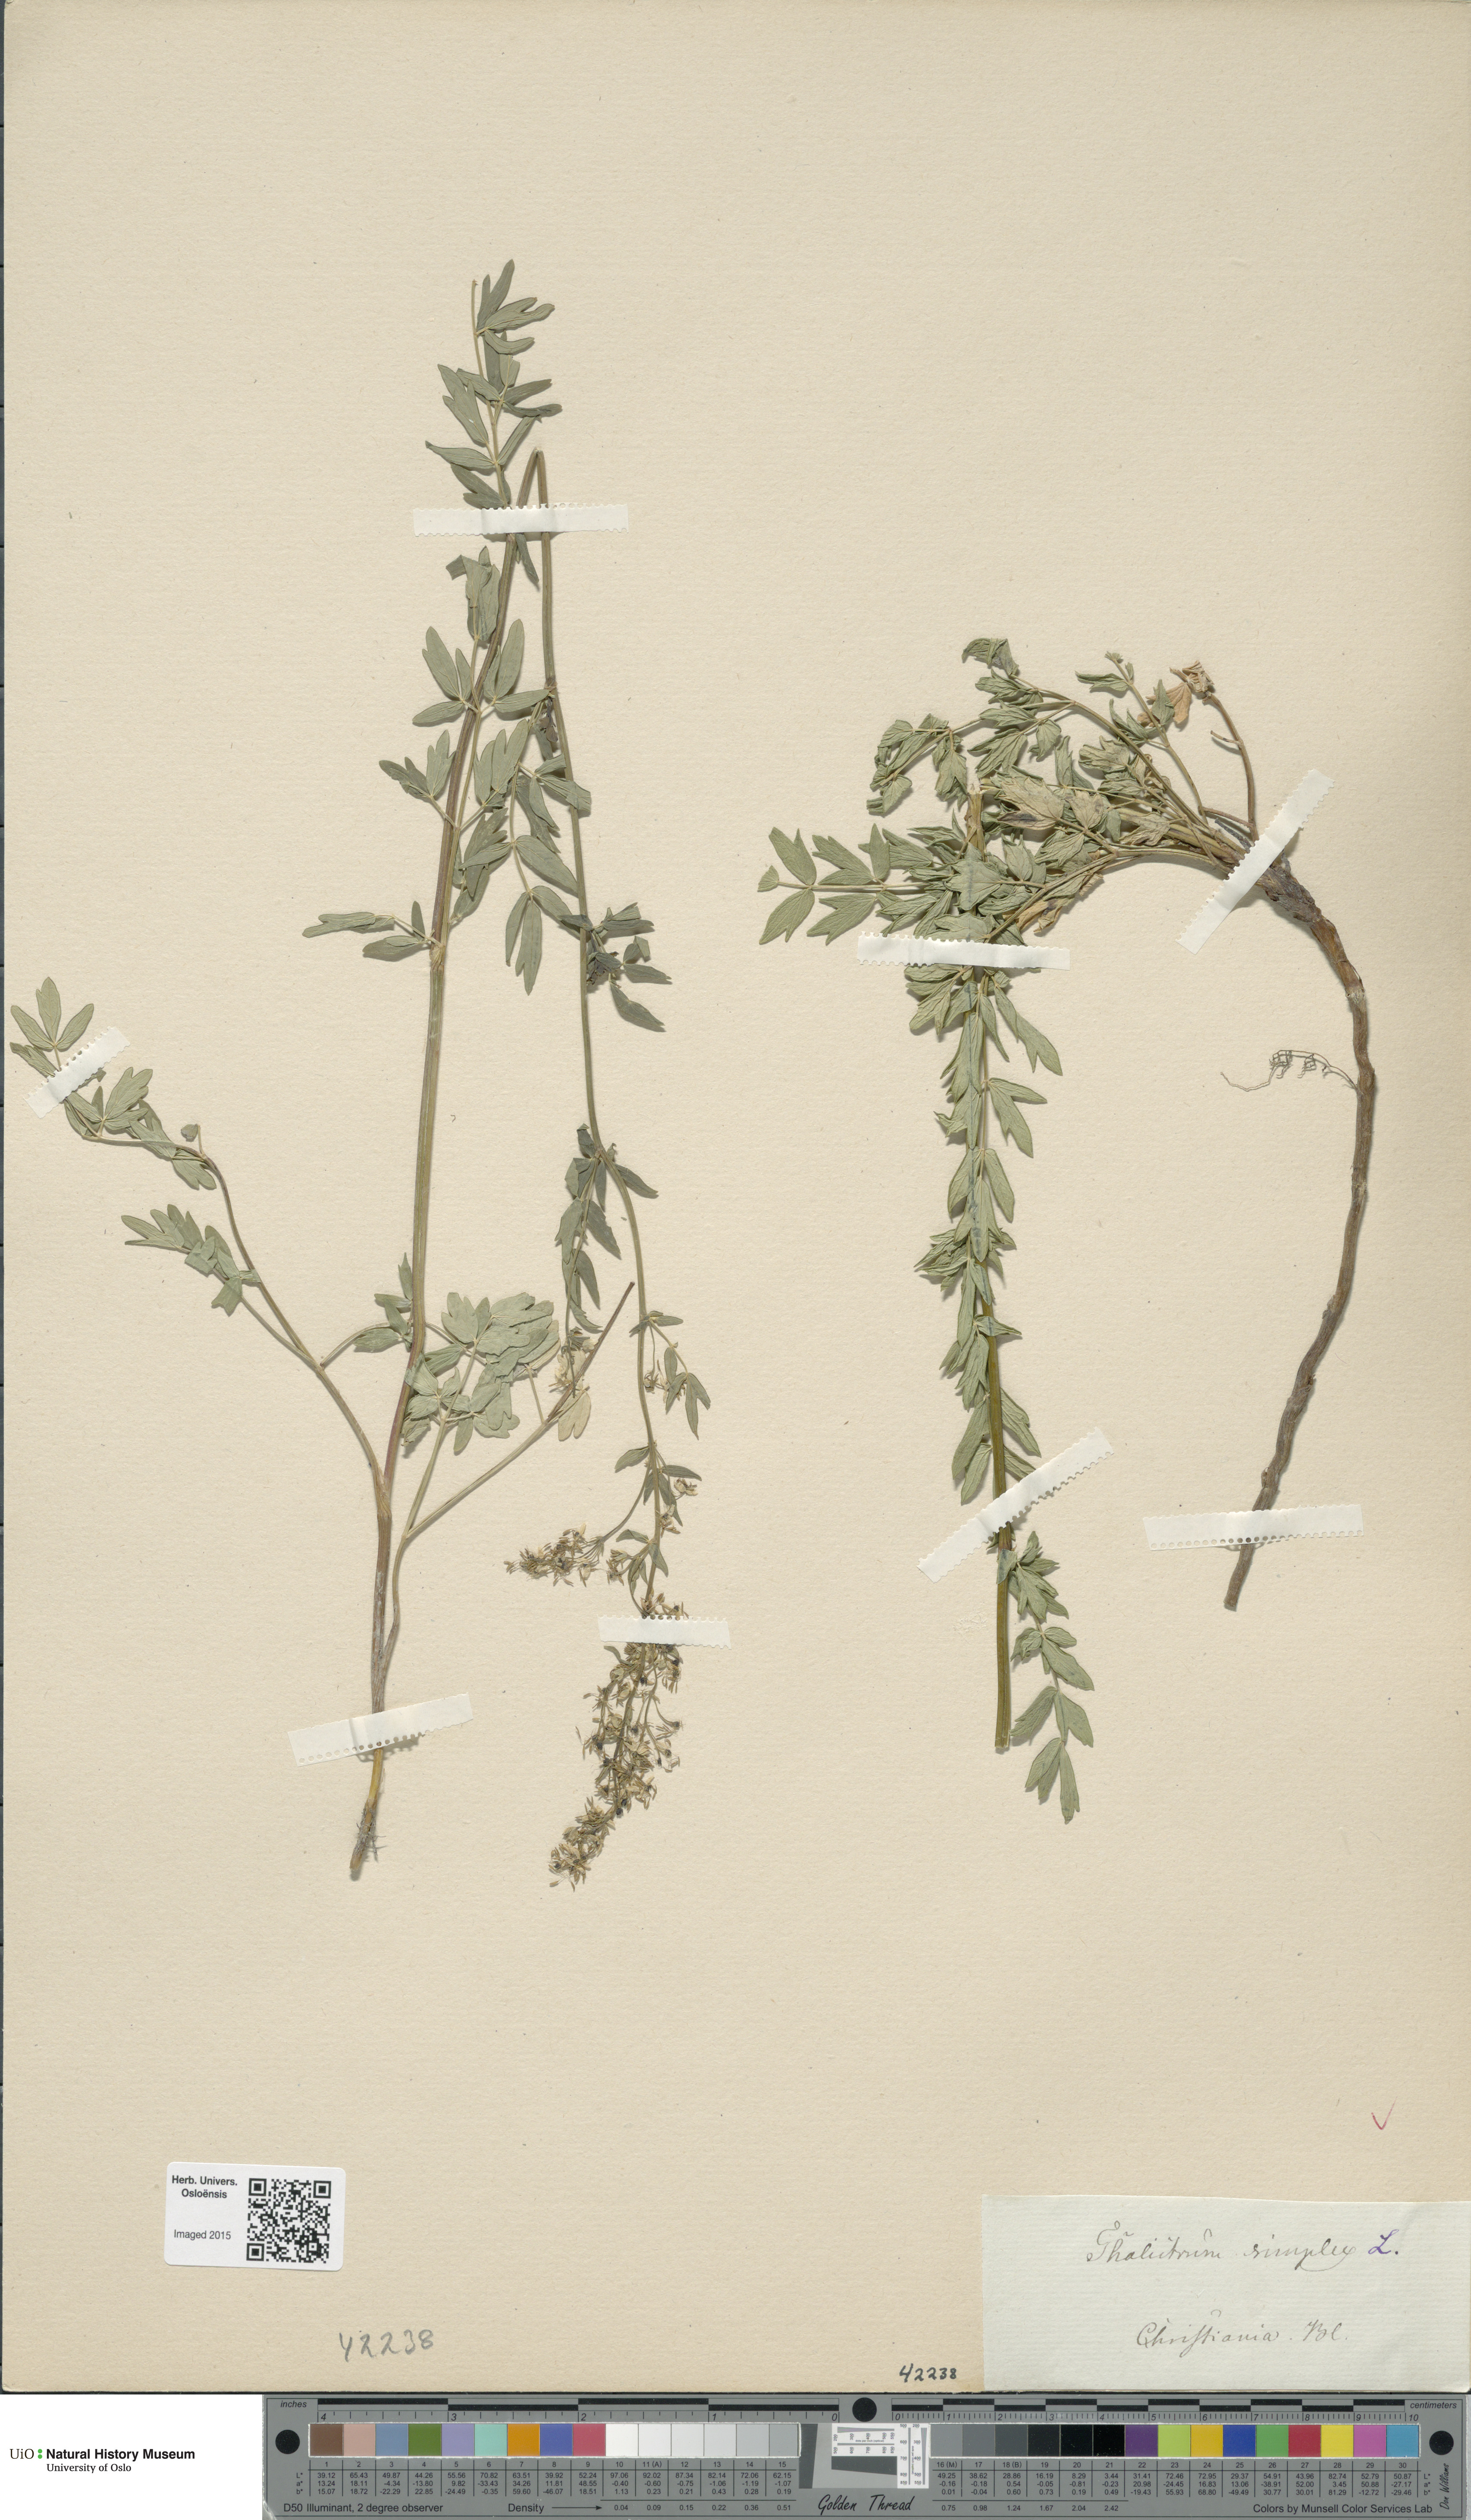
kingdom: Plantae
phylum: Tracheophyta
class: Magnoliopsida
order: Ranunculales
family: Ranunculaceae
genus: Thalictrum
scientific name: Thalictrum simplex
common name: Small meadow-rue
